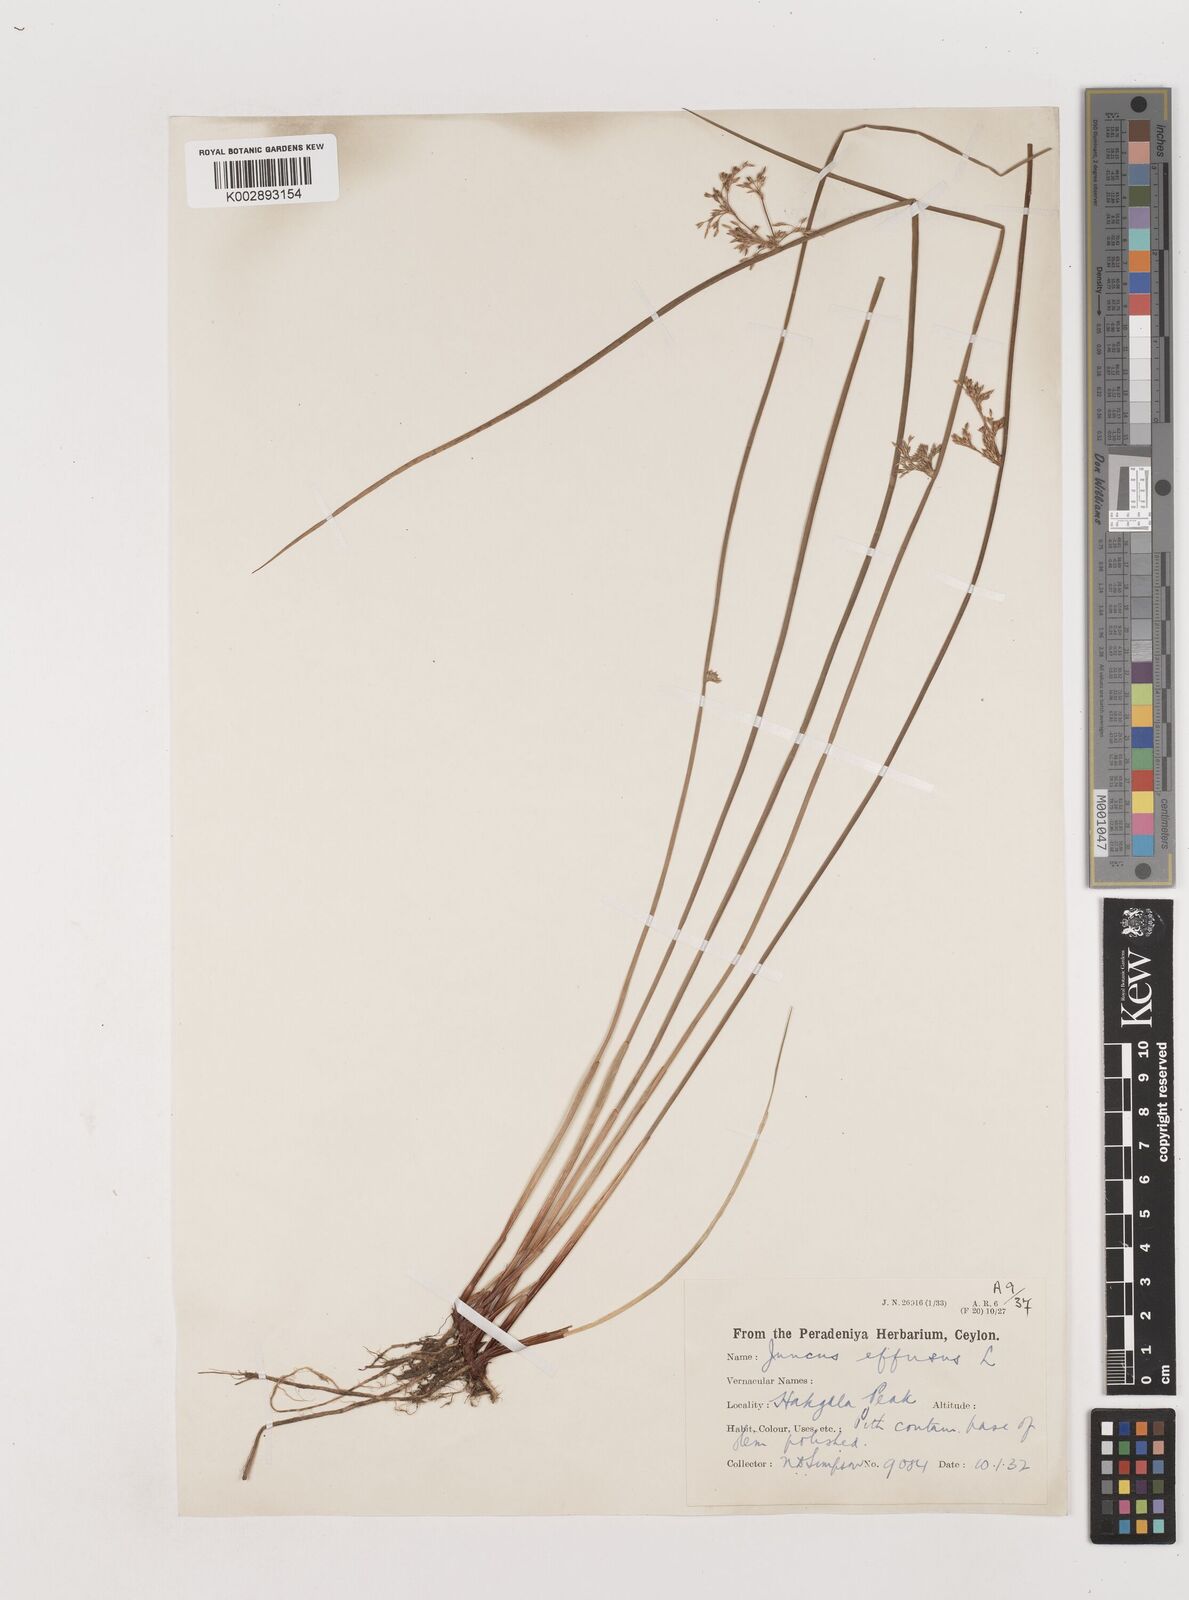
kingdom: Plantae
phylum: Tracheophyta
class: Liliopsida
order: Poales
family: Juncaceae
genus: Juncus
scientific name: Juncus effusus
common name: Soft rush
